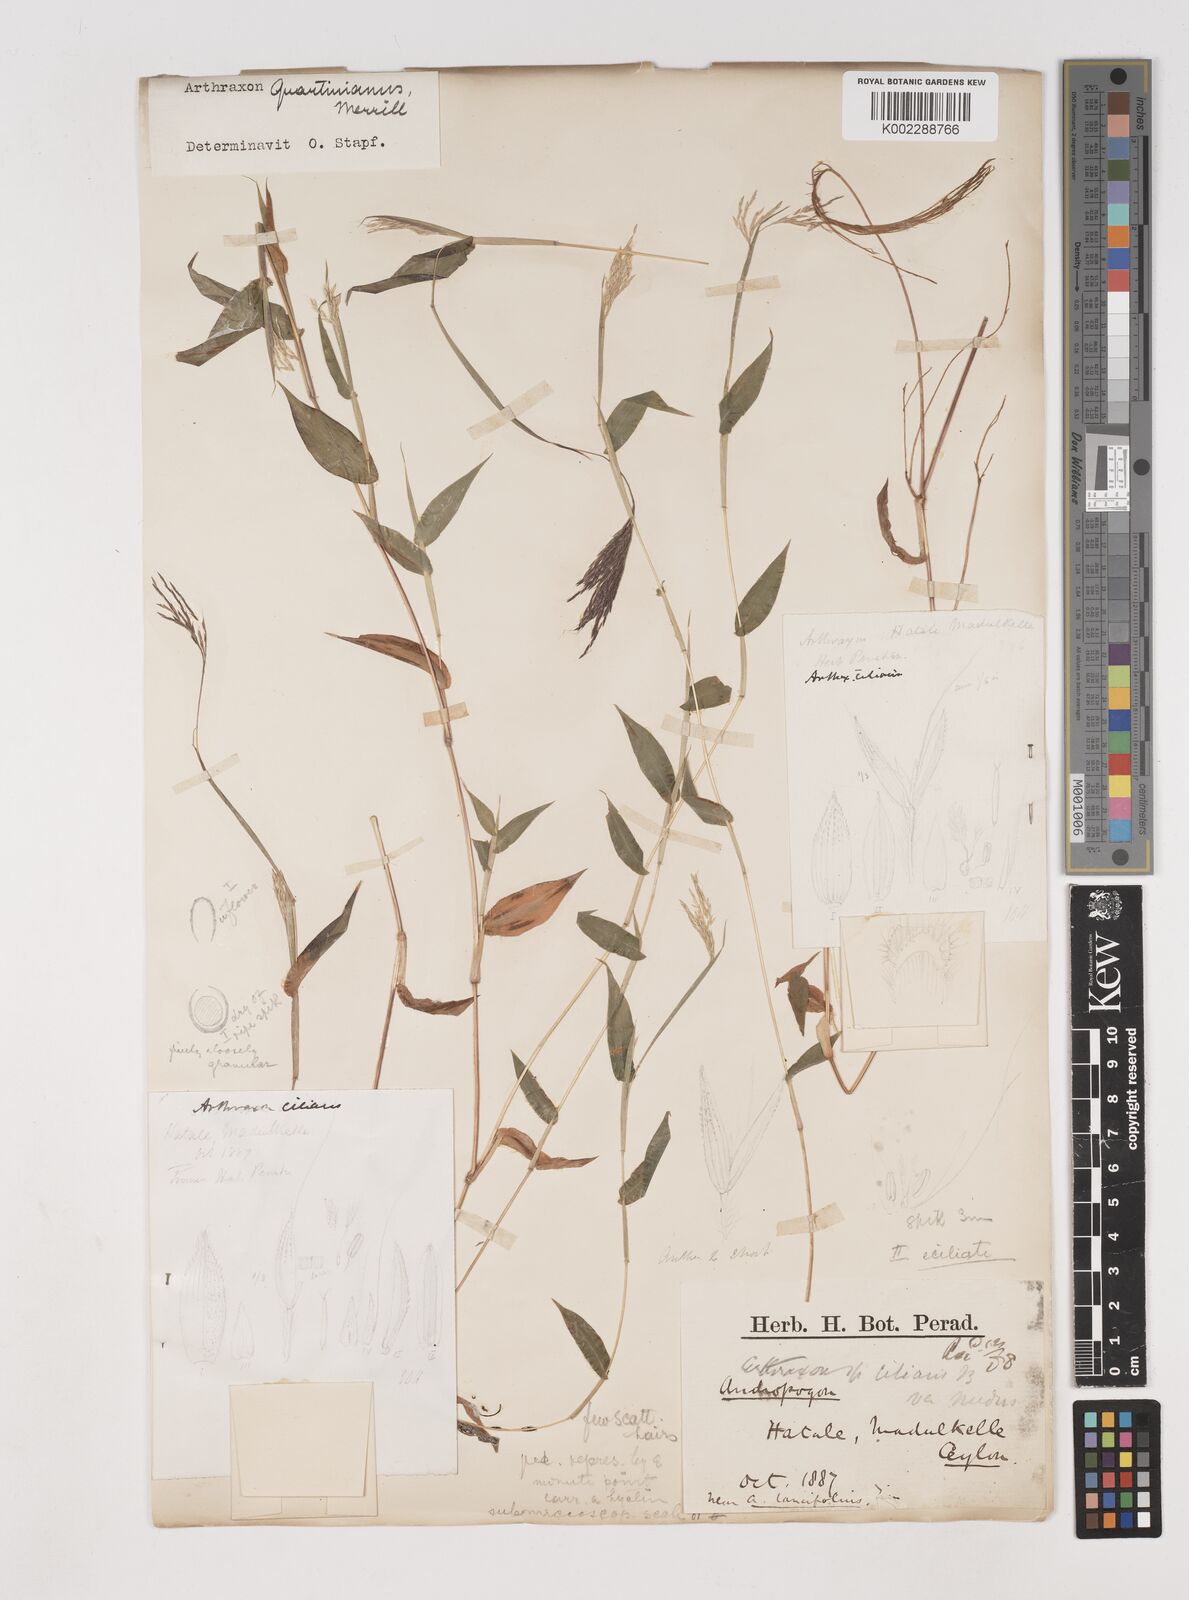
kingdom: Plantae
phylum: Tracheophyta
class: Liliopsida
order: Poales
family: Poaceae
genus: Arthraxon
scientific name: Arthraxon hispidus
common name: Small carpgrass
